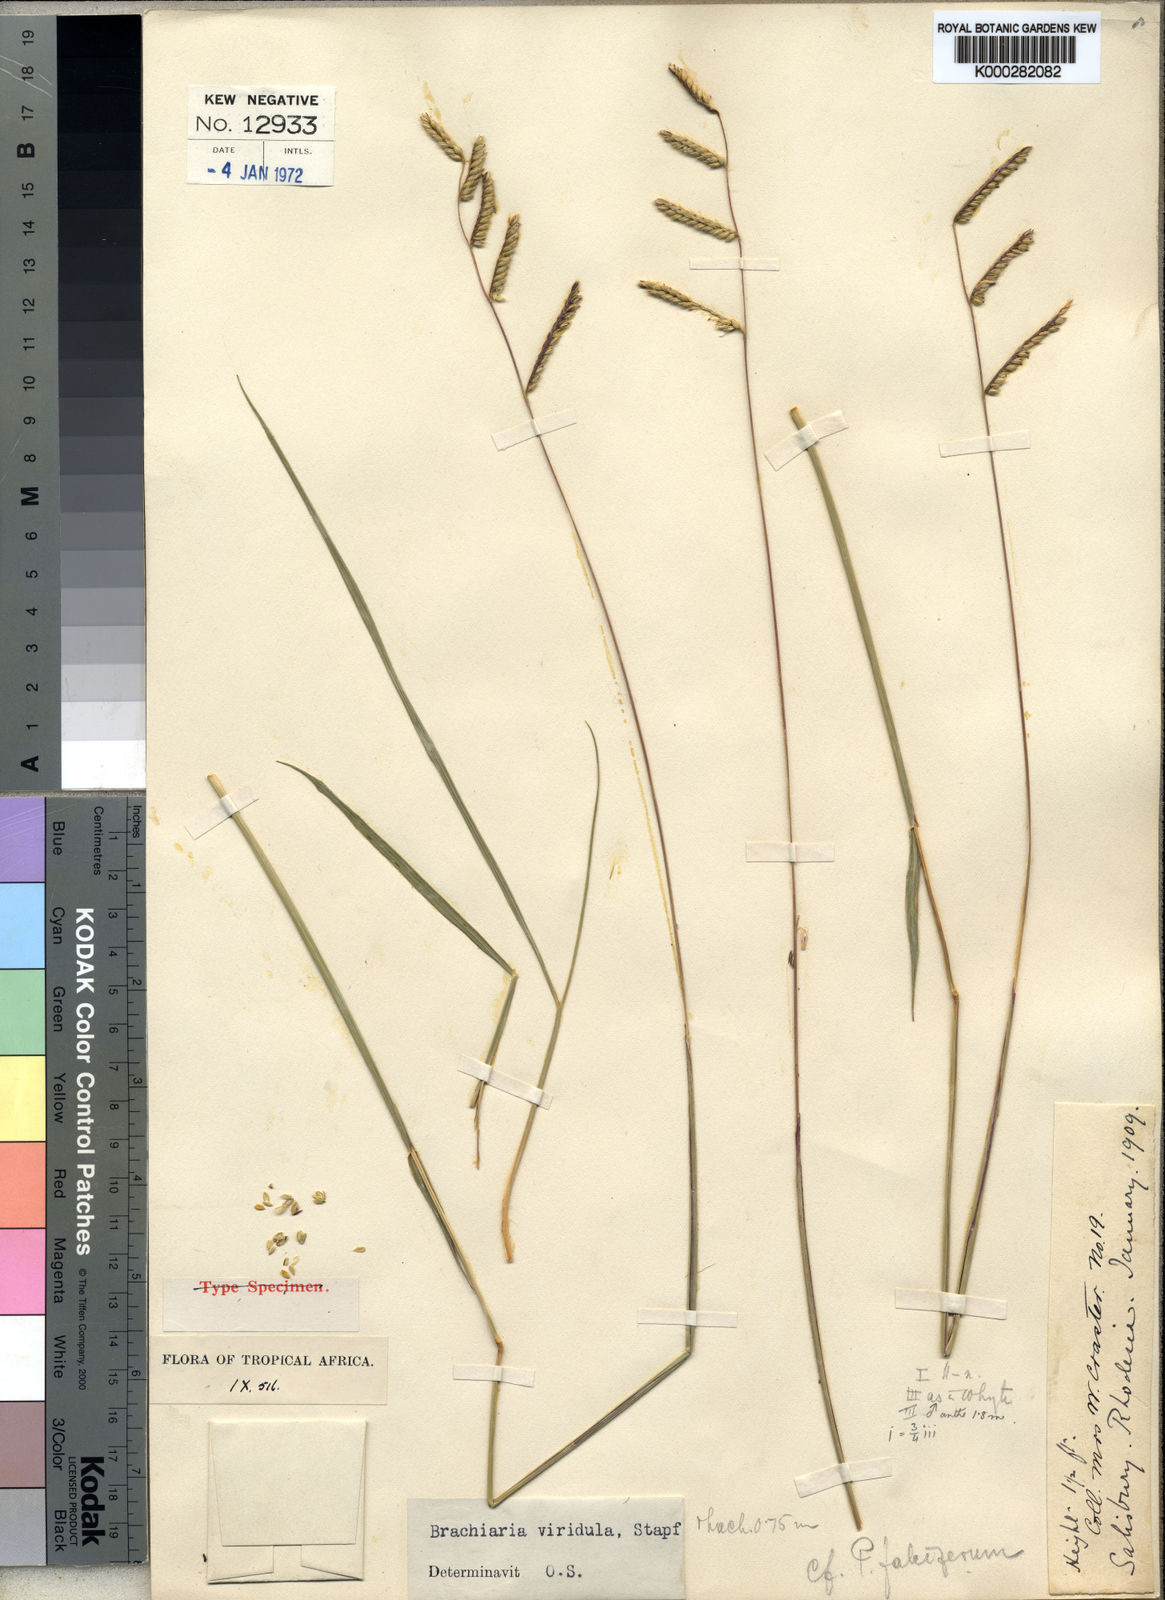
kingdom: Plantae
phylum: Tracheophyta
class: Liliopsida
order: Poales
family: Poaceae
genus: Urochloa
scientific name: Urochloa bovonei
